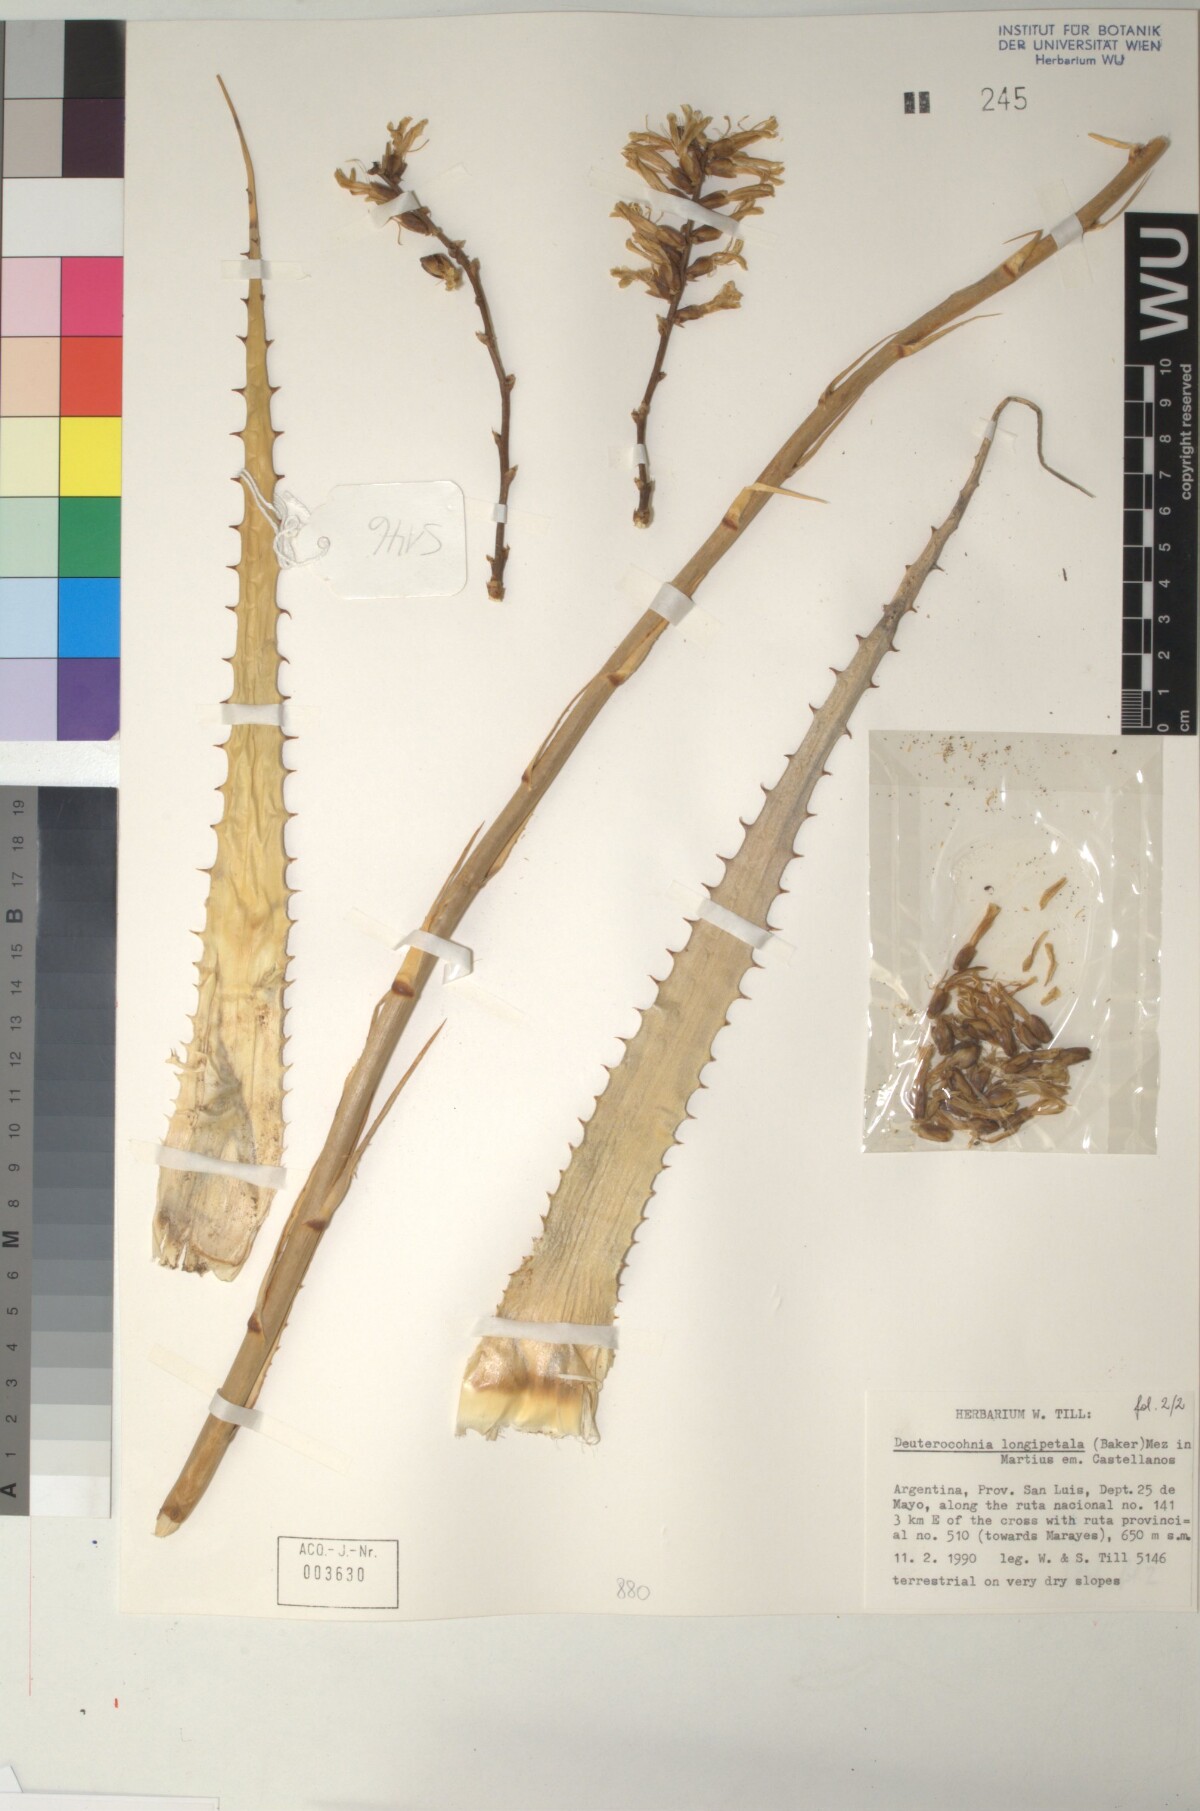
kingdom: Plantae
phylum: Tracheophyta
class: Liliopsida
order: Poales
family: Bromeliaceae
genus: Deuterocohnia
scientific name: Deuterocohnia longipetala
